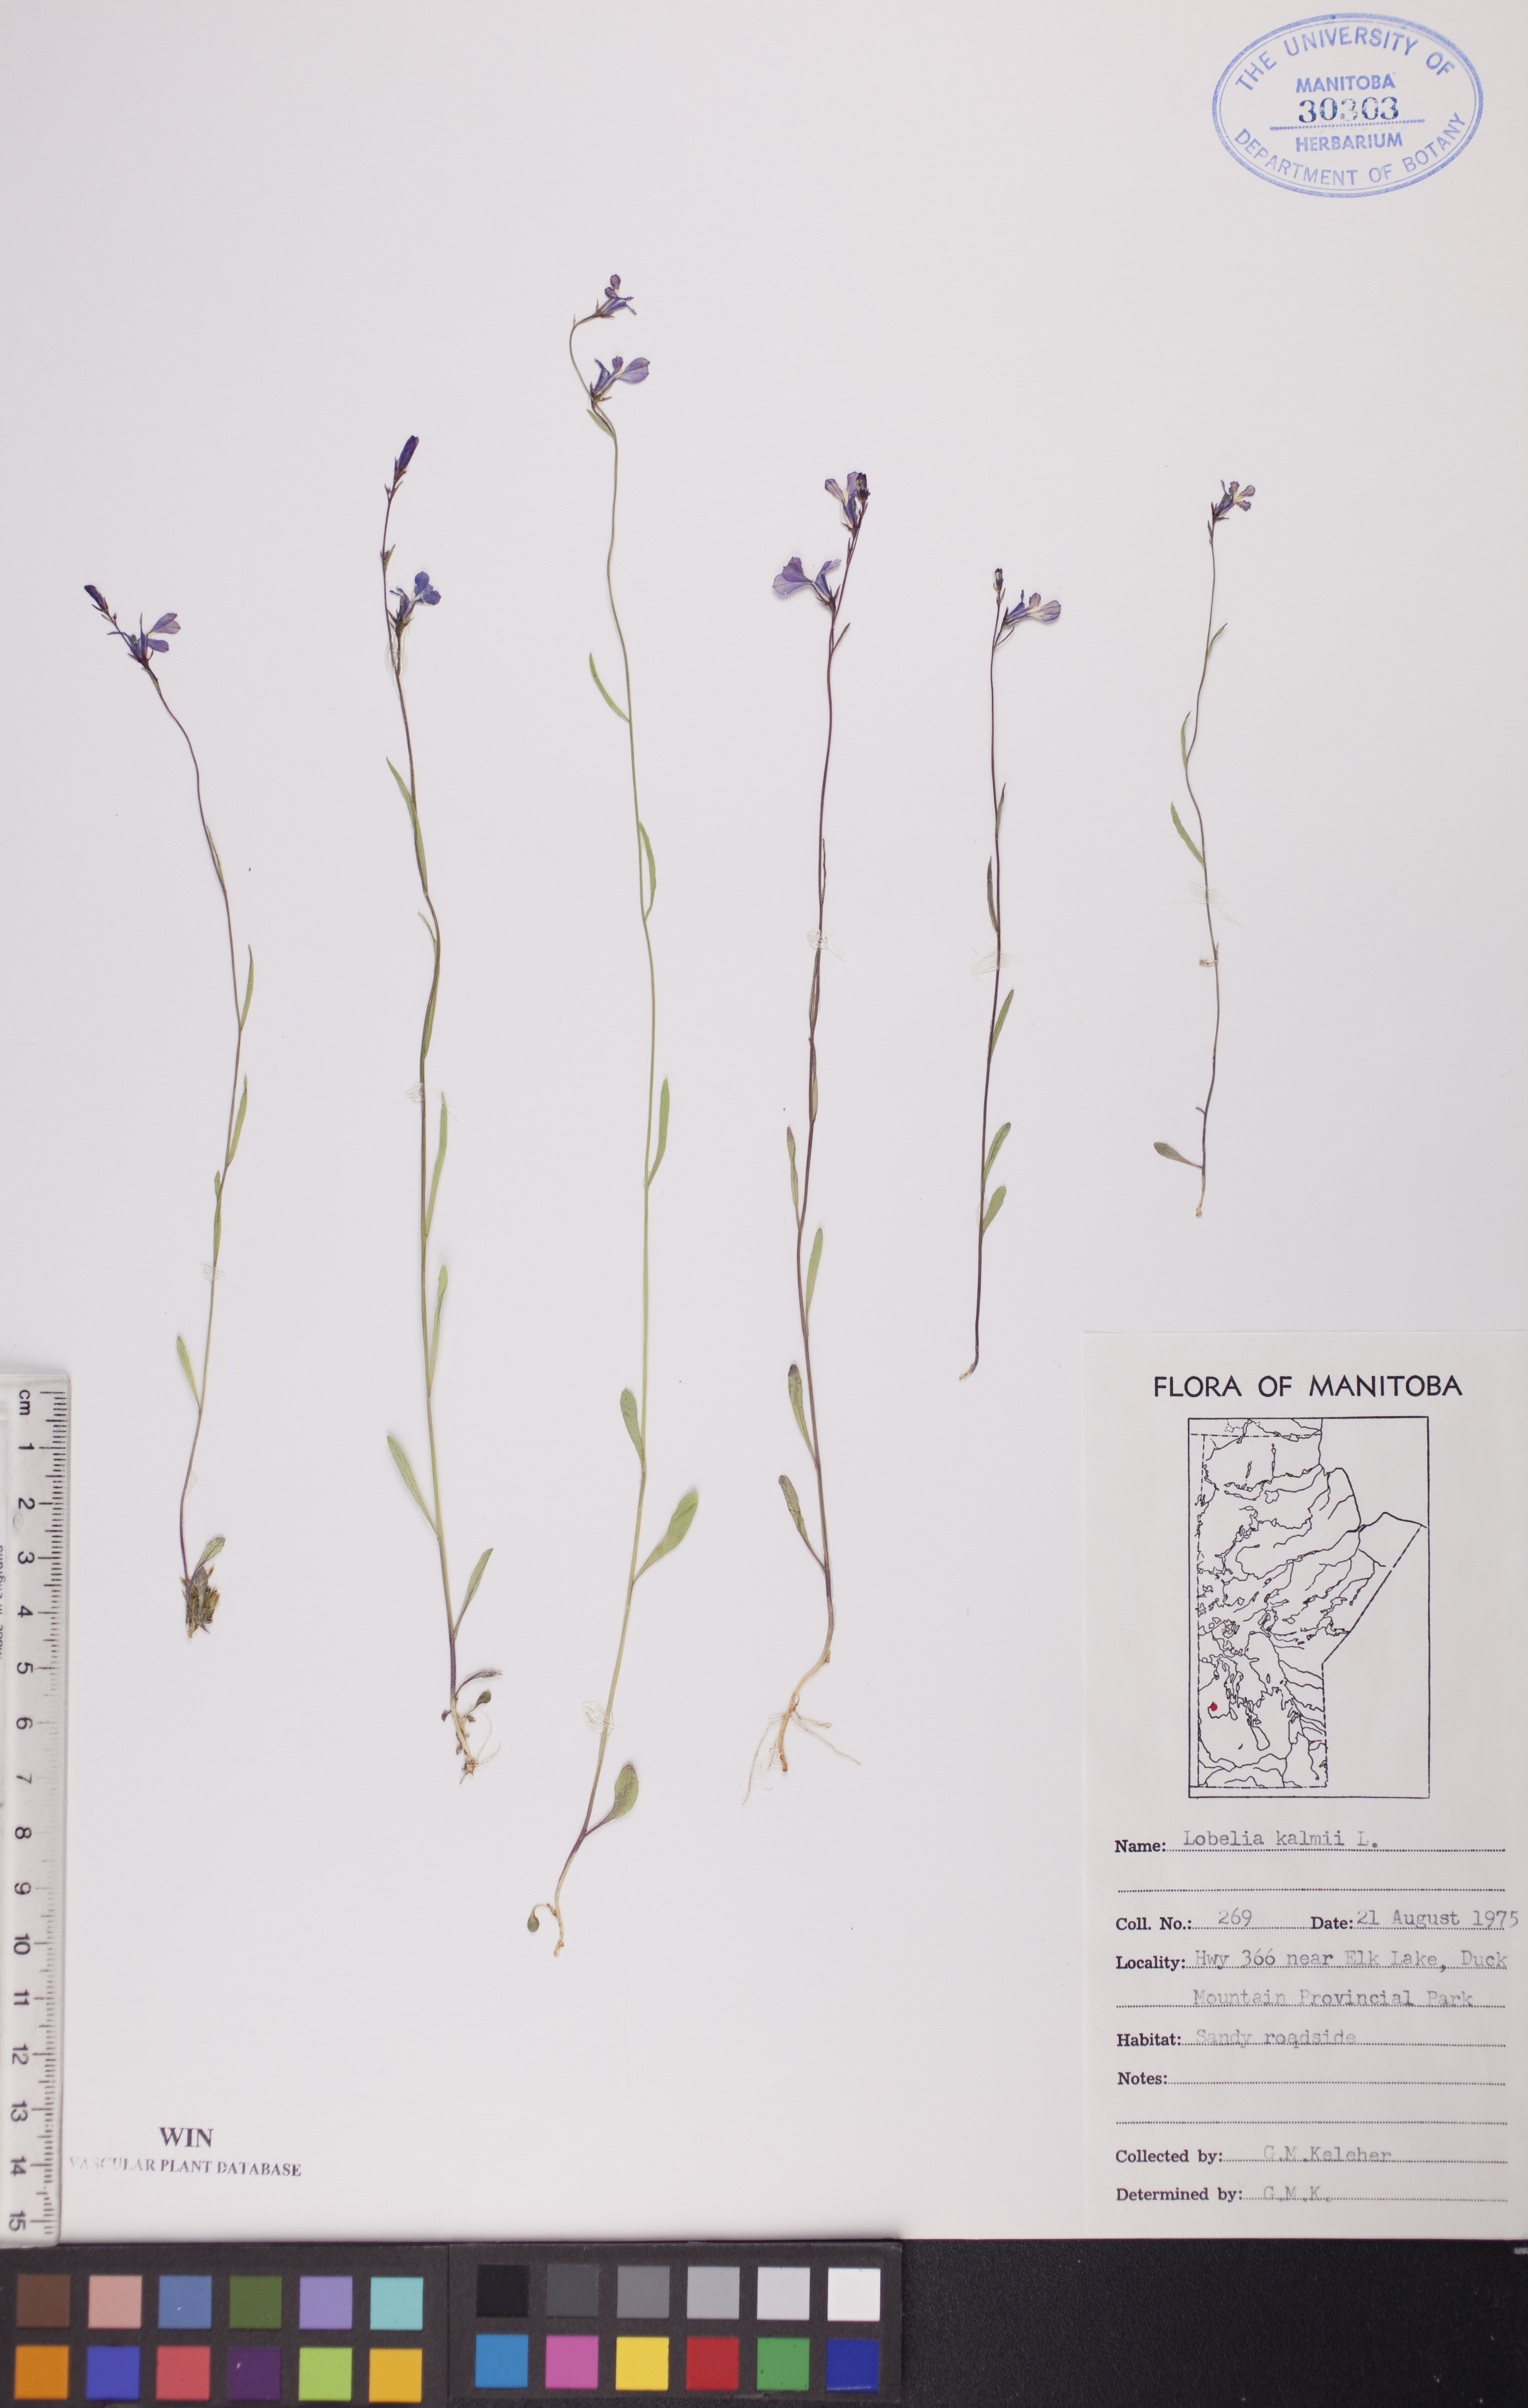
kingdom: Plantae
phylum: Tracheophyta
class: Magnoliopsida
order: Asterales
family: Campanulaceae
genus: Lobelia
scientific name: Lobelia kalmii
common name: Kalm's lobelia
